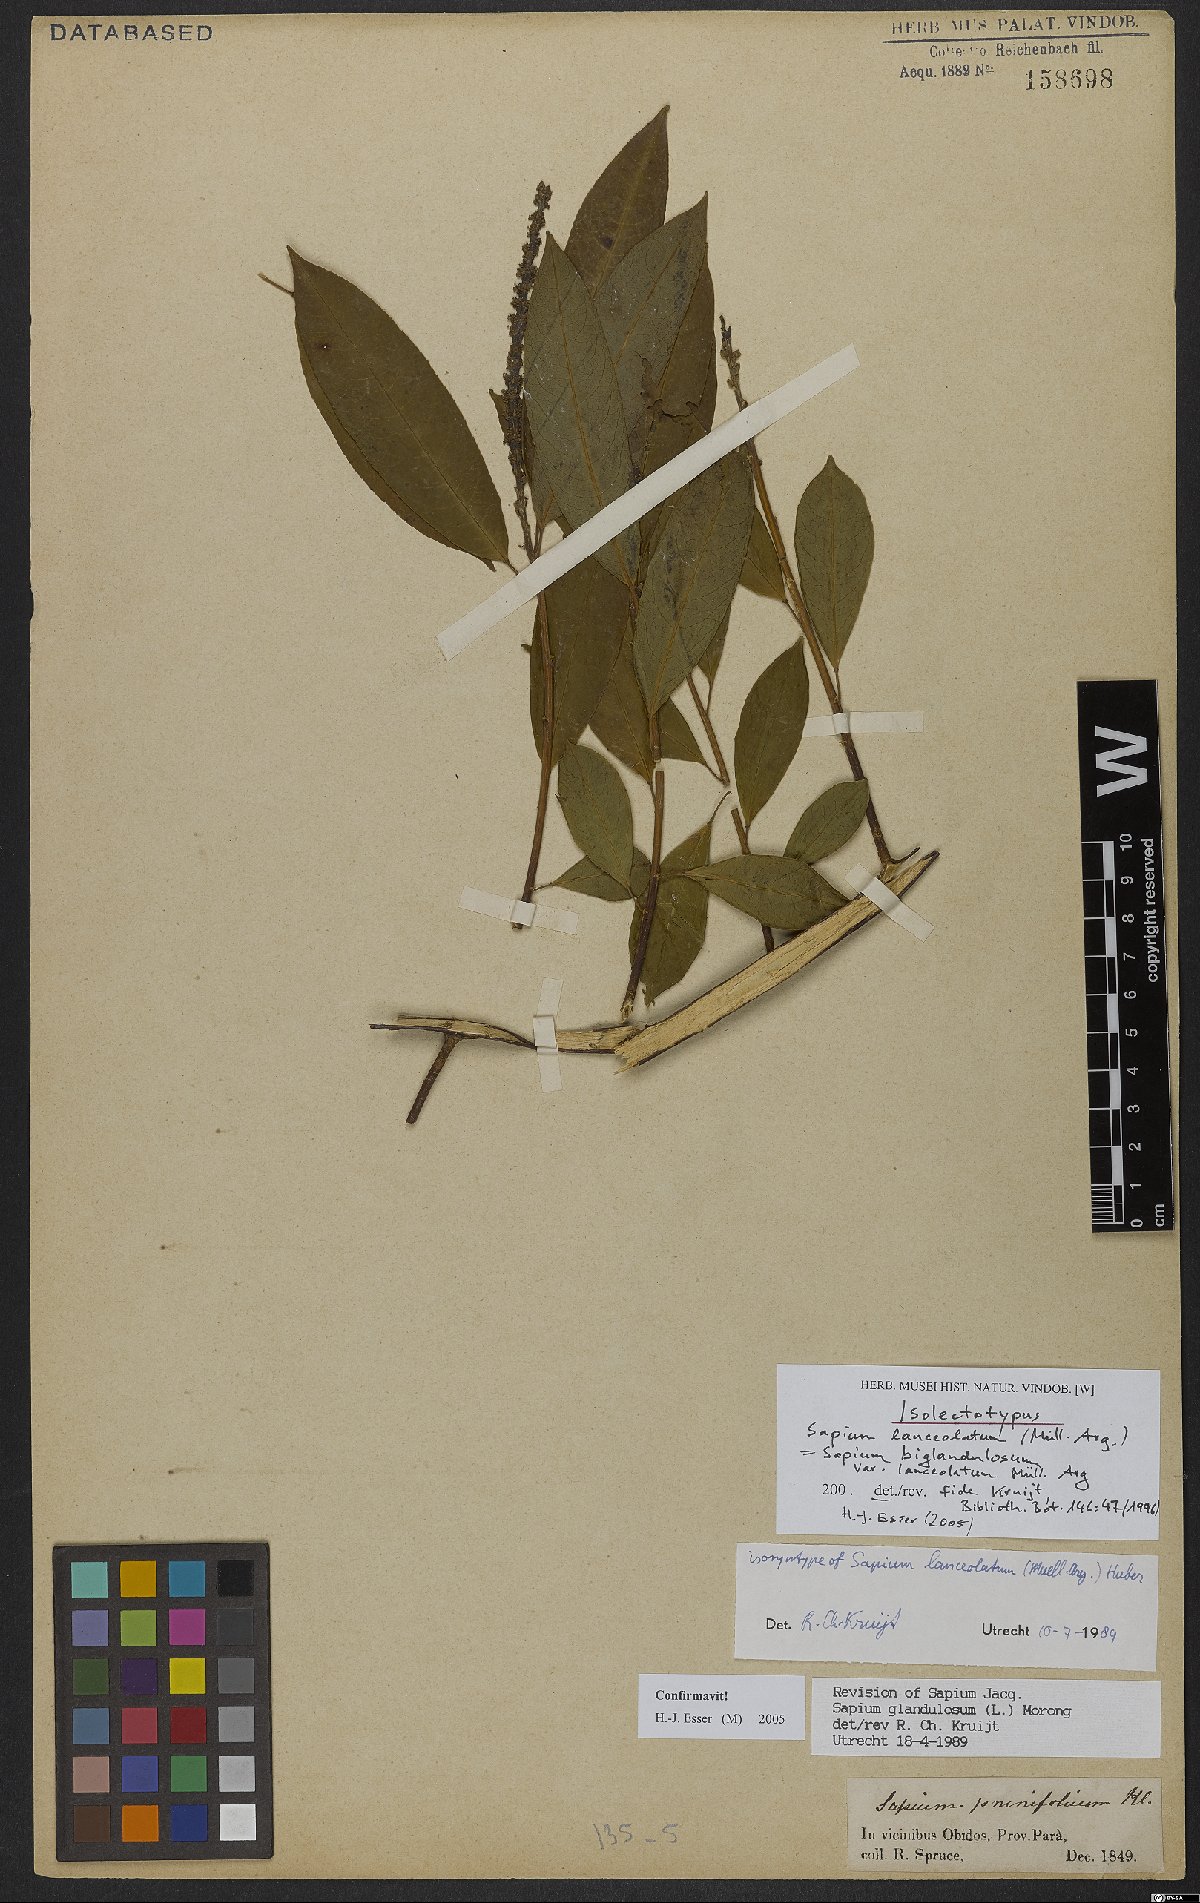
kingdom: Plantae
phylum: Tracheophyta
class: Magnoliopsida
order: Malpighiales
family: Euphorbiaceae
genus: Sapium
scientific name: Sapium glandulosum
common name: Milktree
